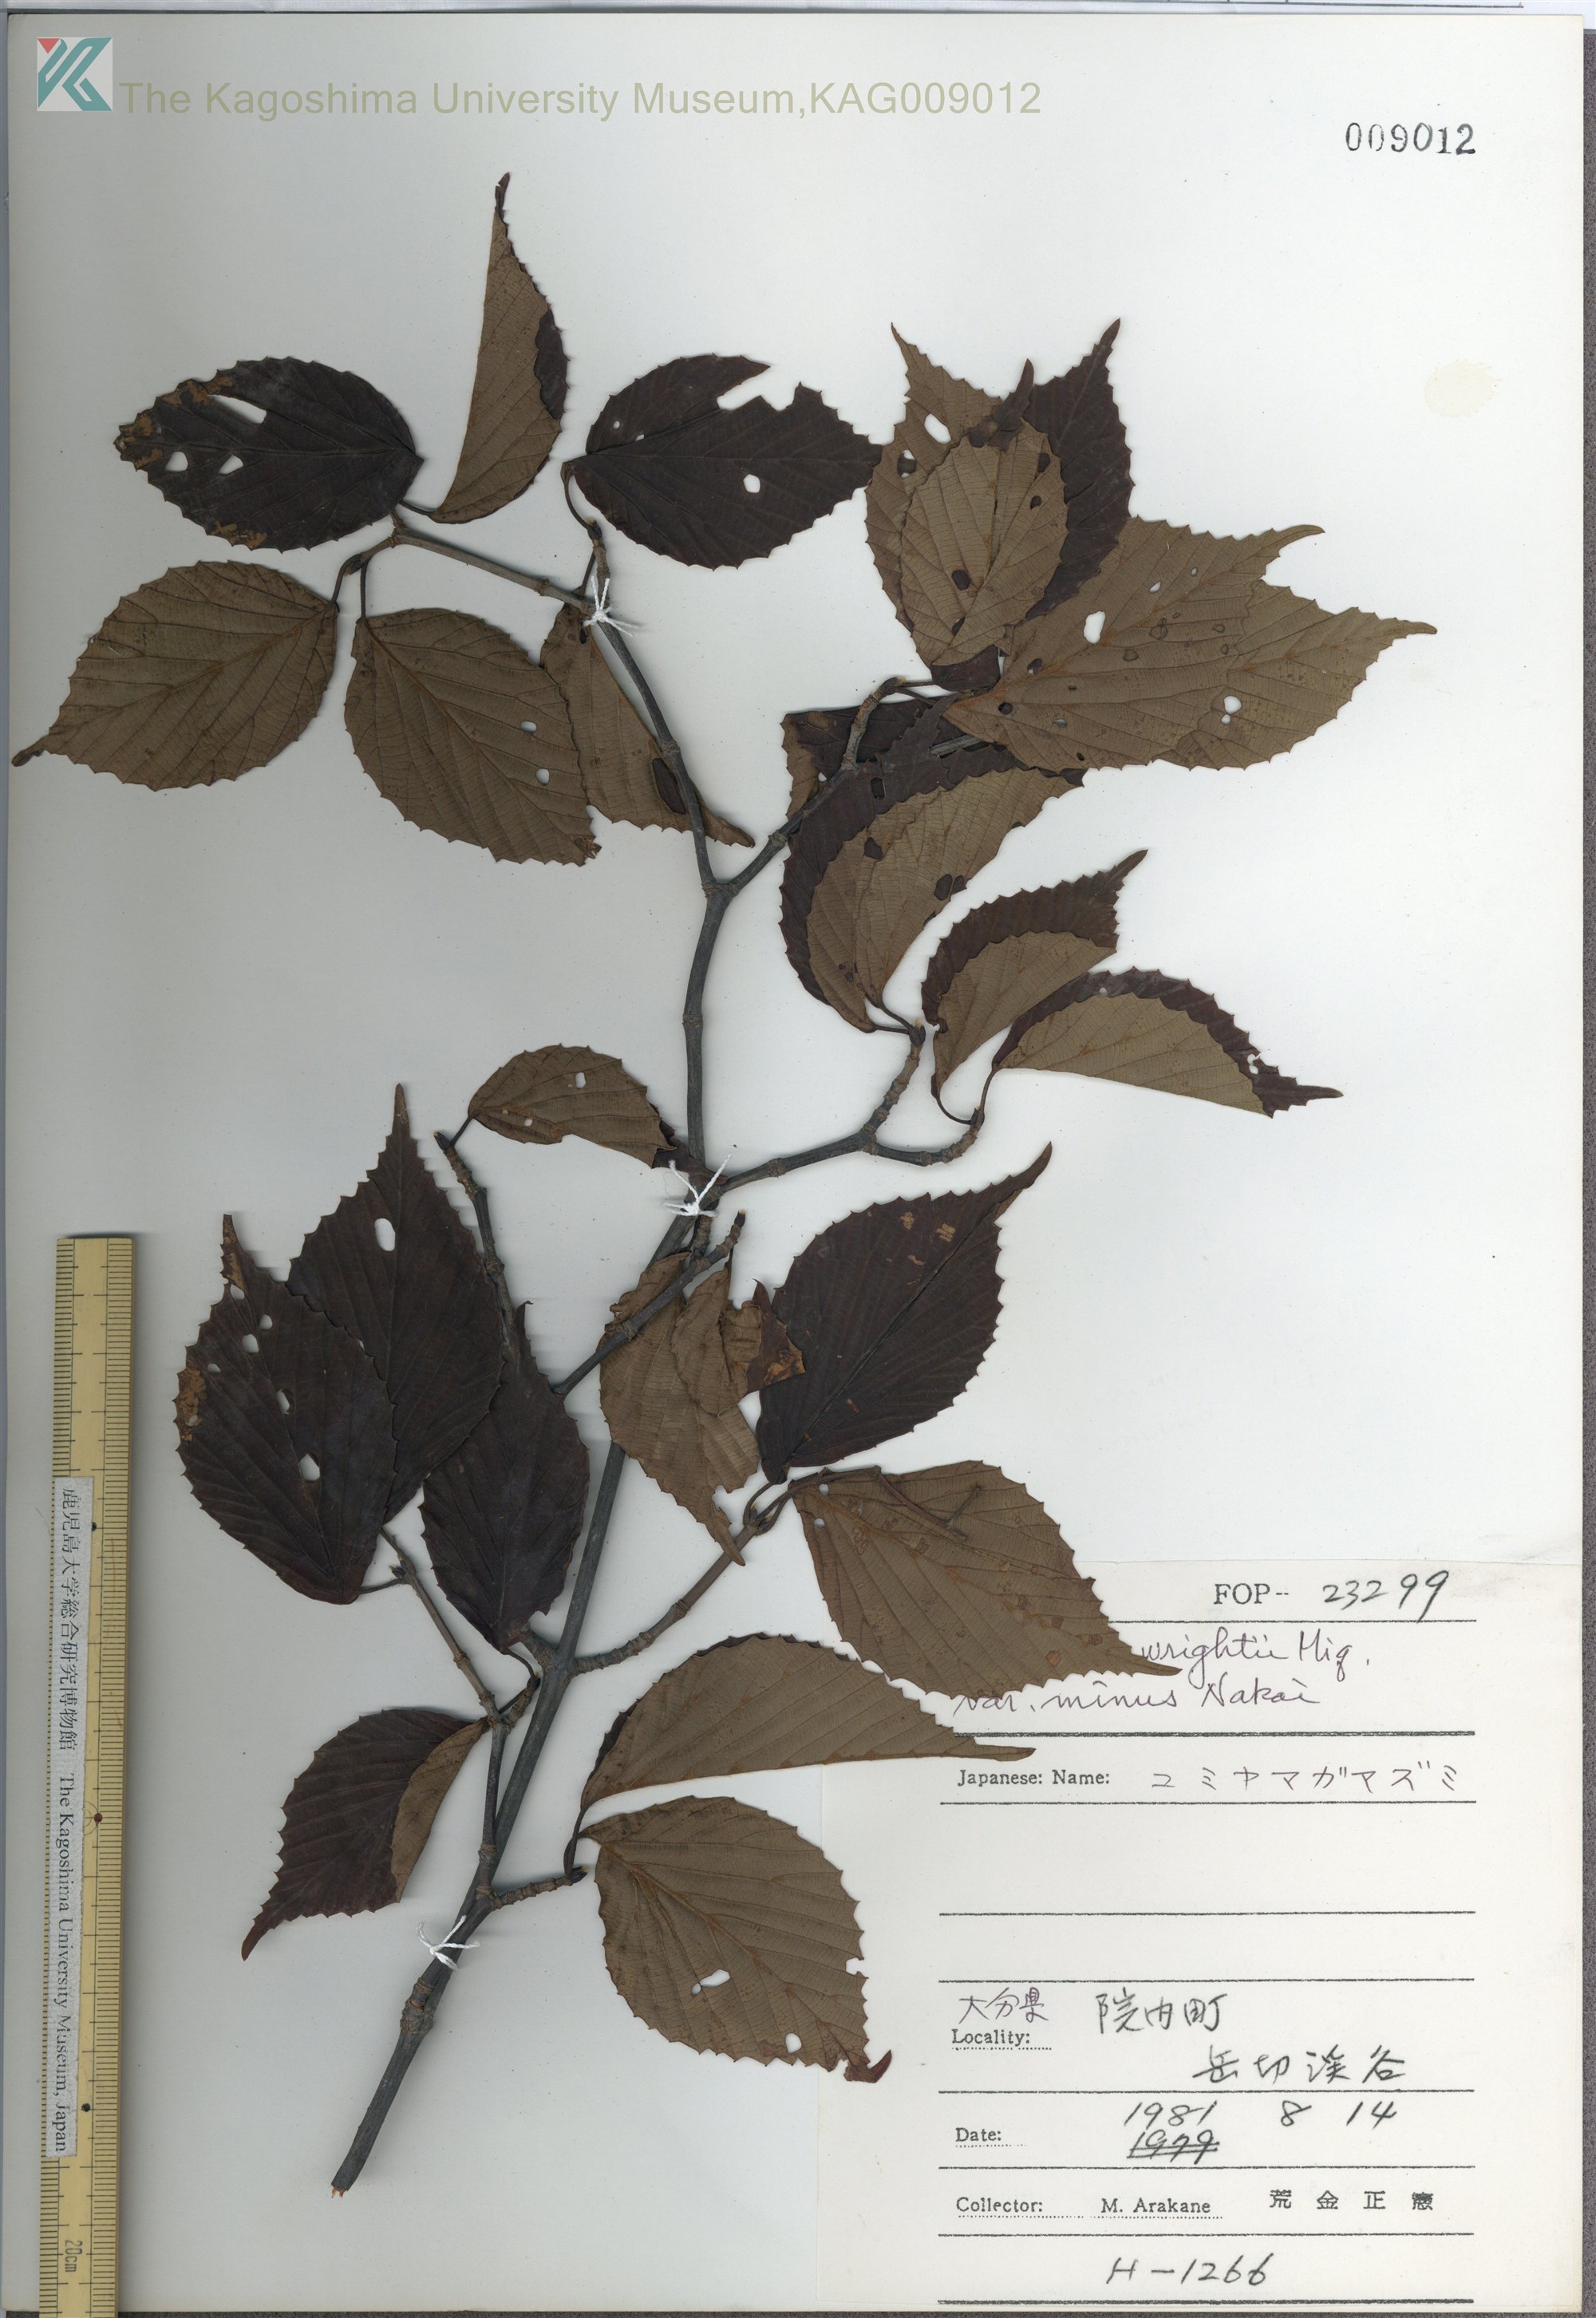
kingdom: Plantae
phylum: Tracheophyta
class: Magnoliopsida
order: Dipsacales
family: Viburnaceae
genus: Viburnum
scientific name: Viburnum wrightii
